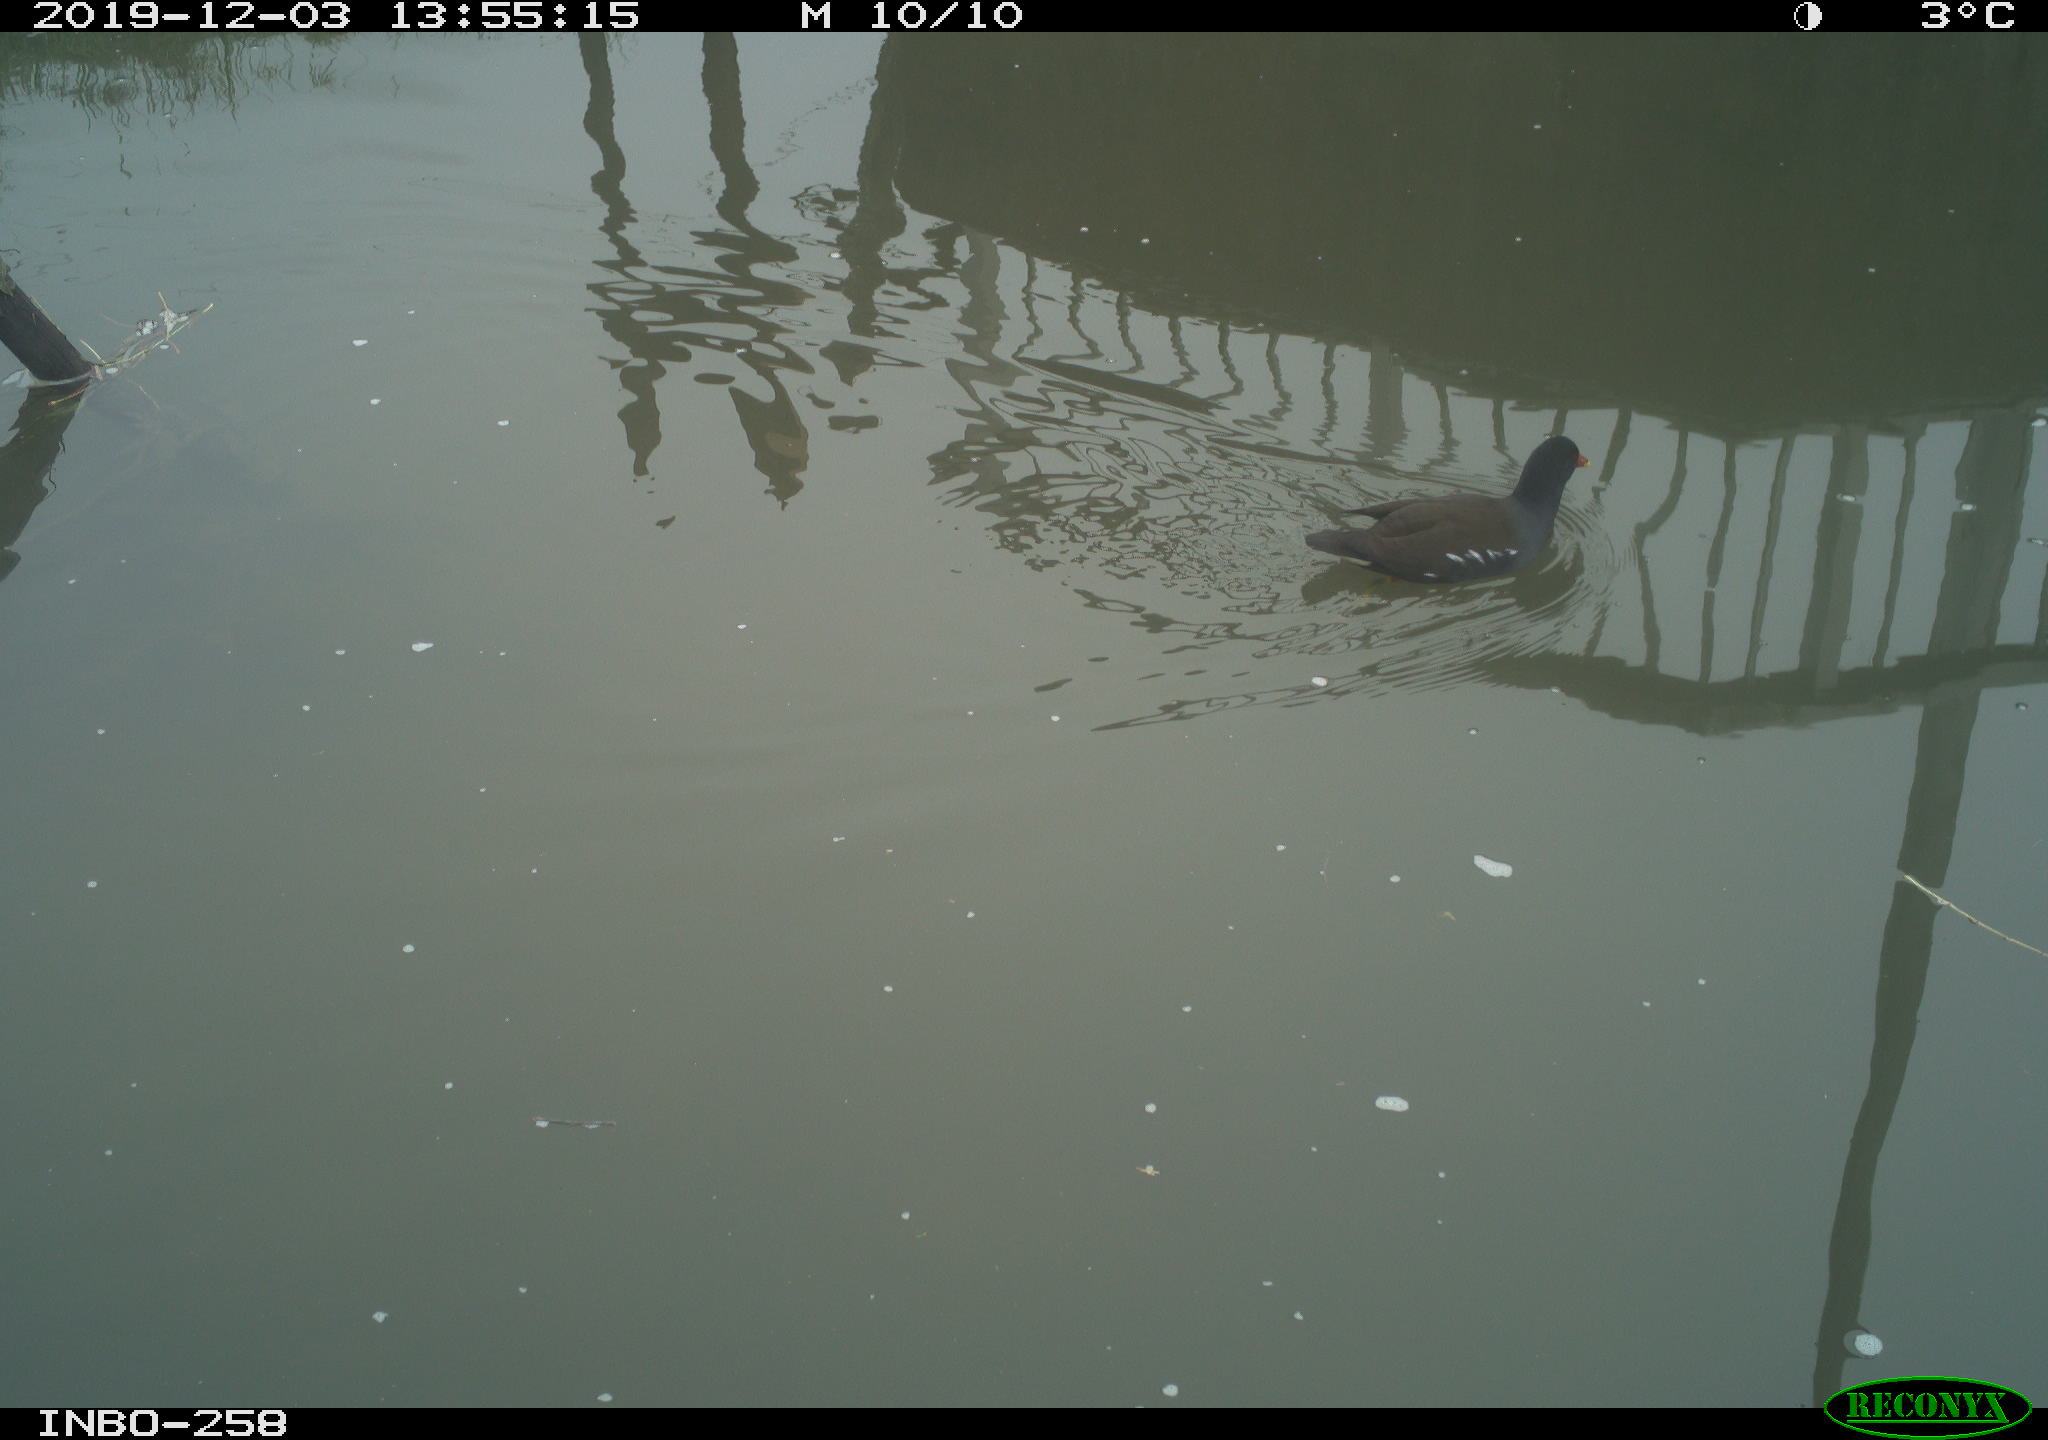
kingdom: Animalia
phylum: Chordata
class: Aves
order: Gruiformes
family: Rallidae
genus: Gallinula
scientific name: Gallinula chloropus
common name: Common moorhen
